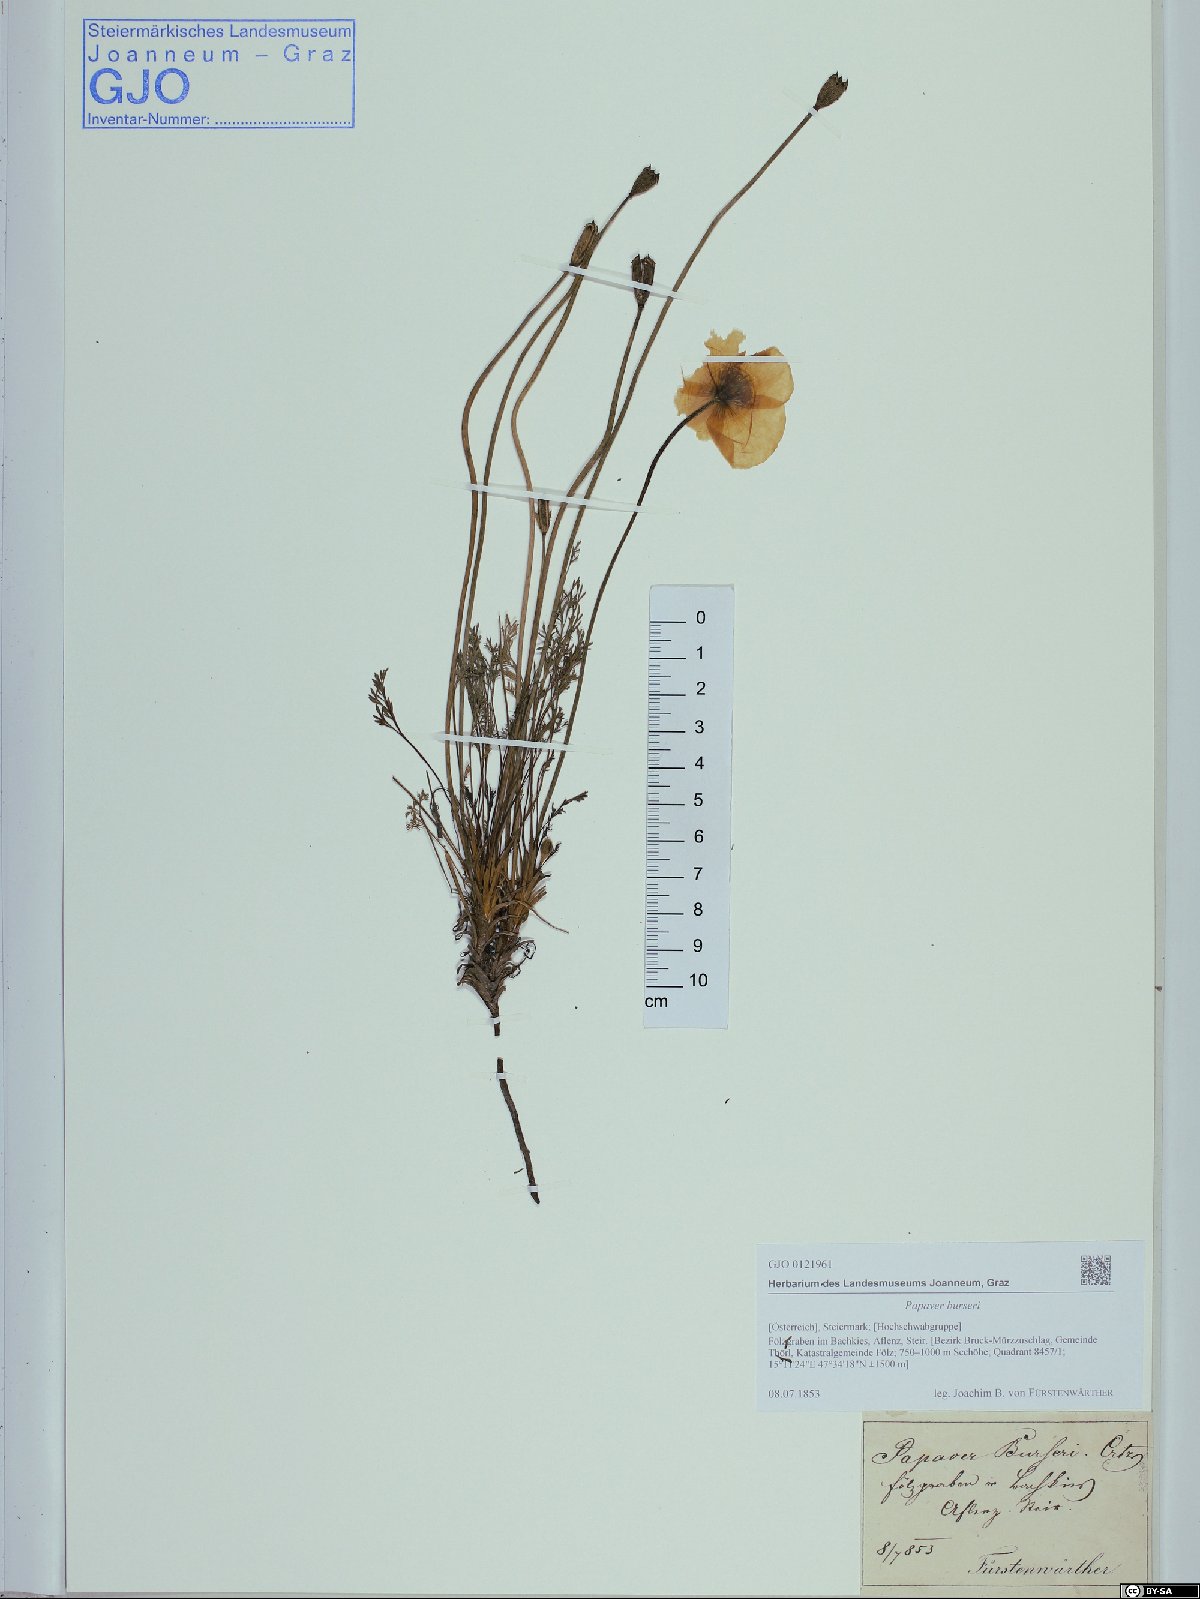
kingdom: Plantae
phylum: Tracheophyta
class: Magnoliopsida
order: Ranunculales
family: Papaveraceae
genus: Papaver
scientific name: Papaver alpinum
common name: Austrian poppy
